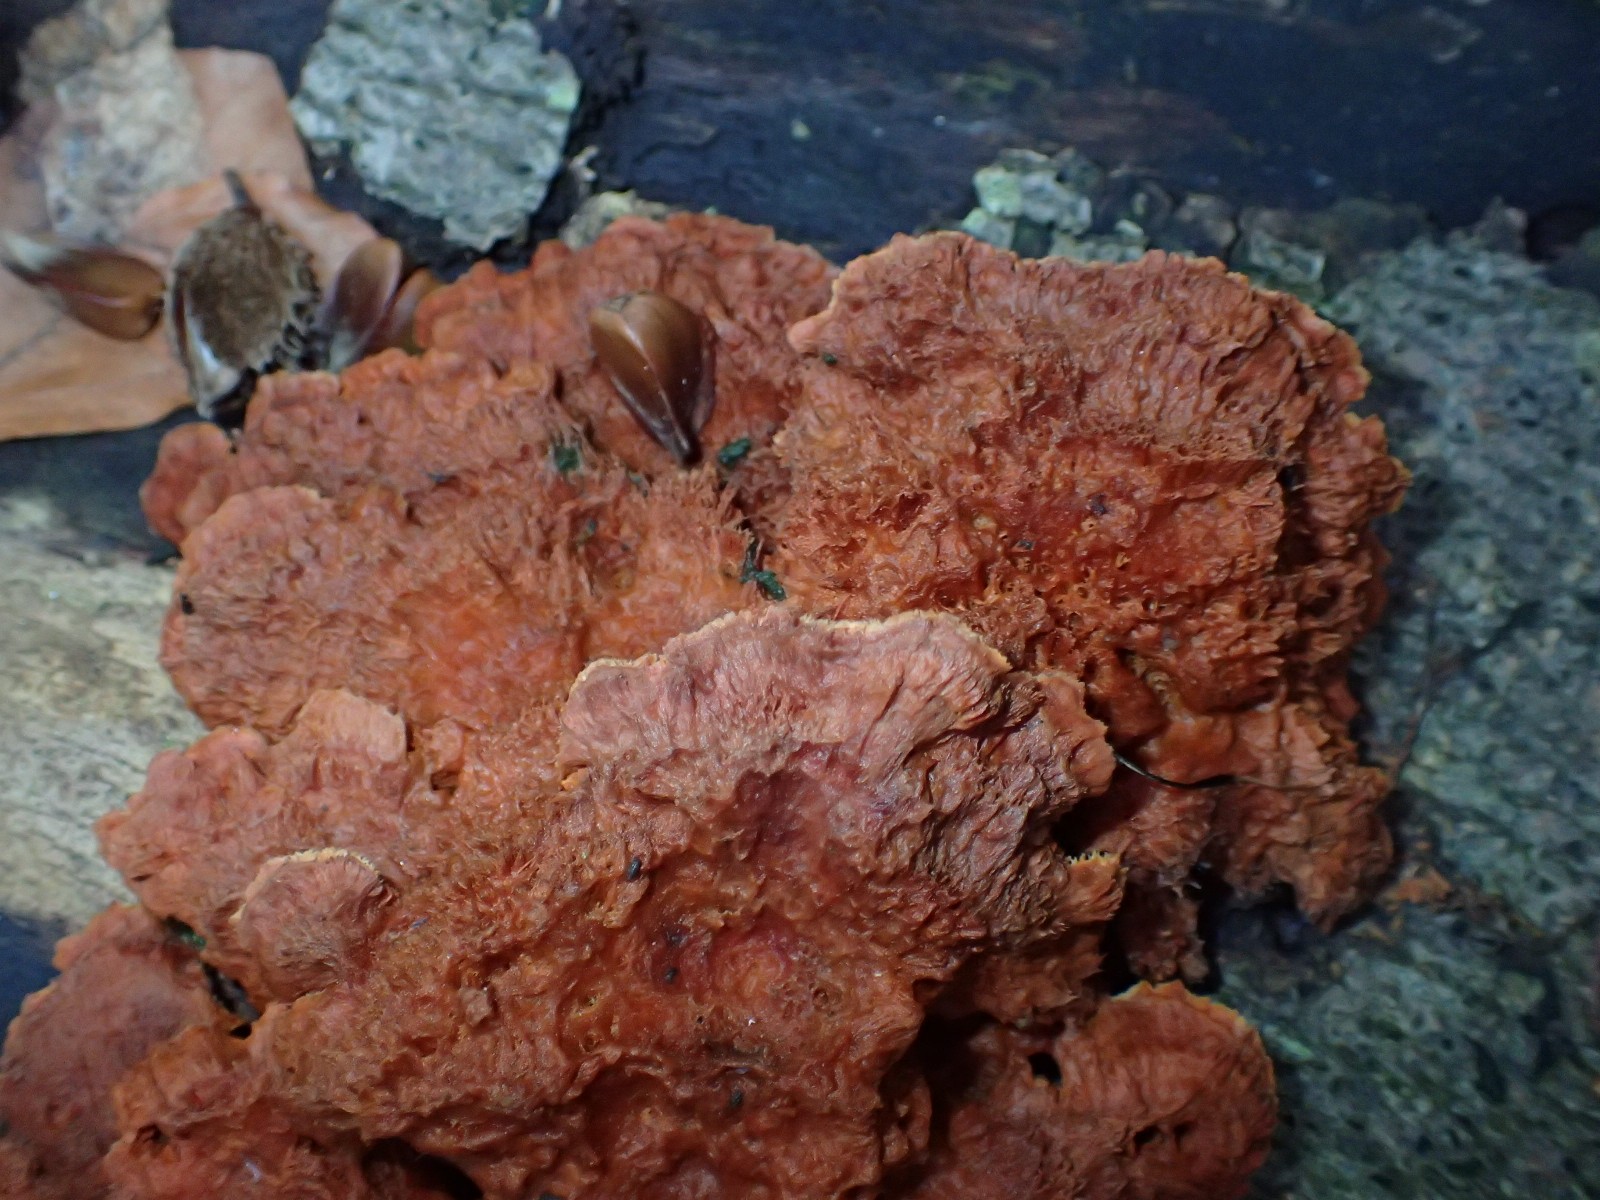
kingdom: Fungi
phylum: Basidiomycota
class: Agaricomycetes
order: Polyporales
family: Pycnoporellaceae
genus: Pycnoporellus
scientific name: Pycnoporellus fulgens
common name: flammeporesvamp
